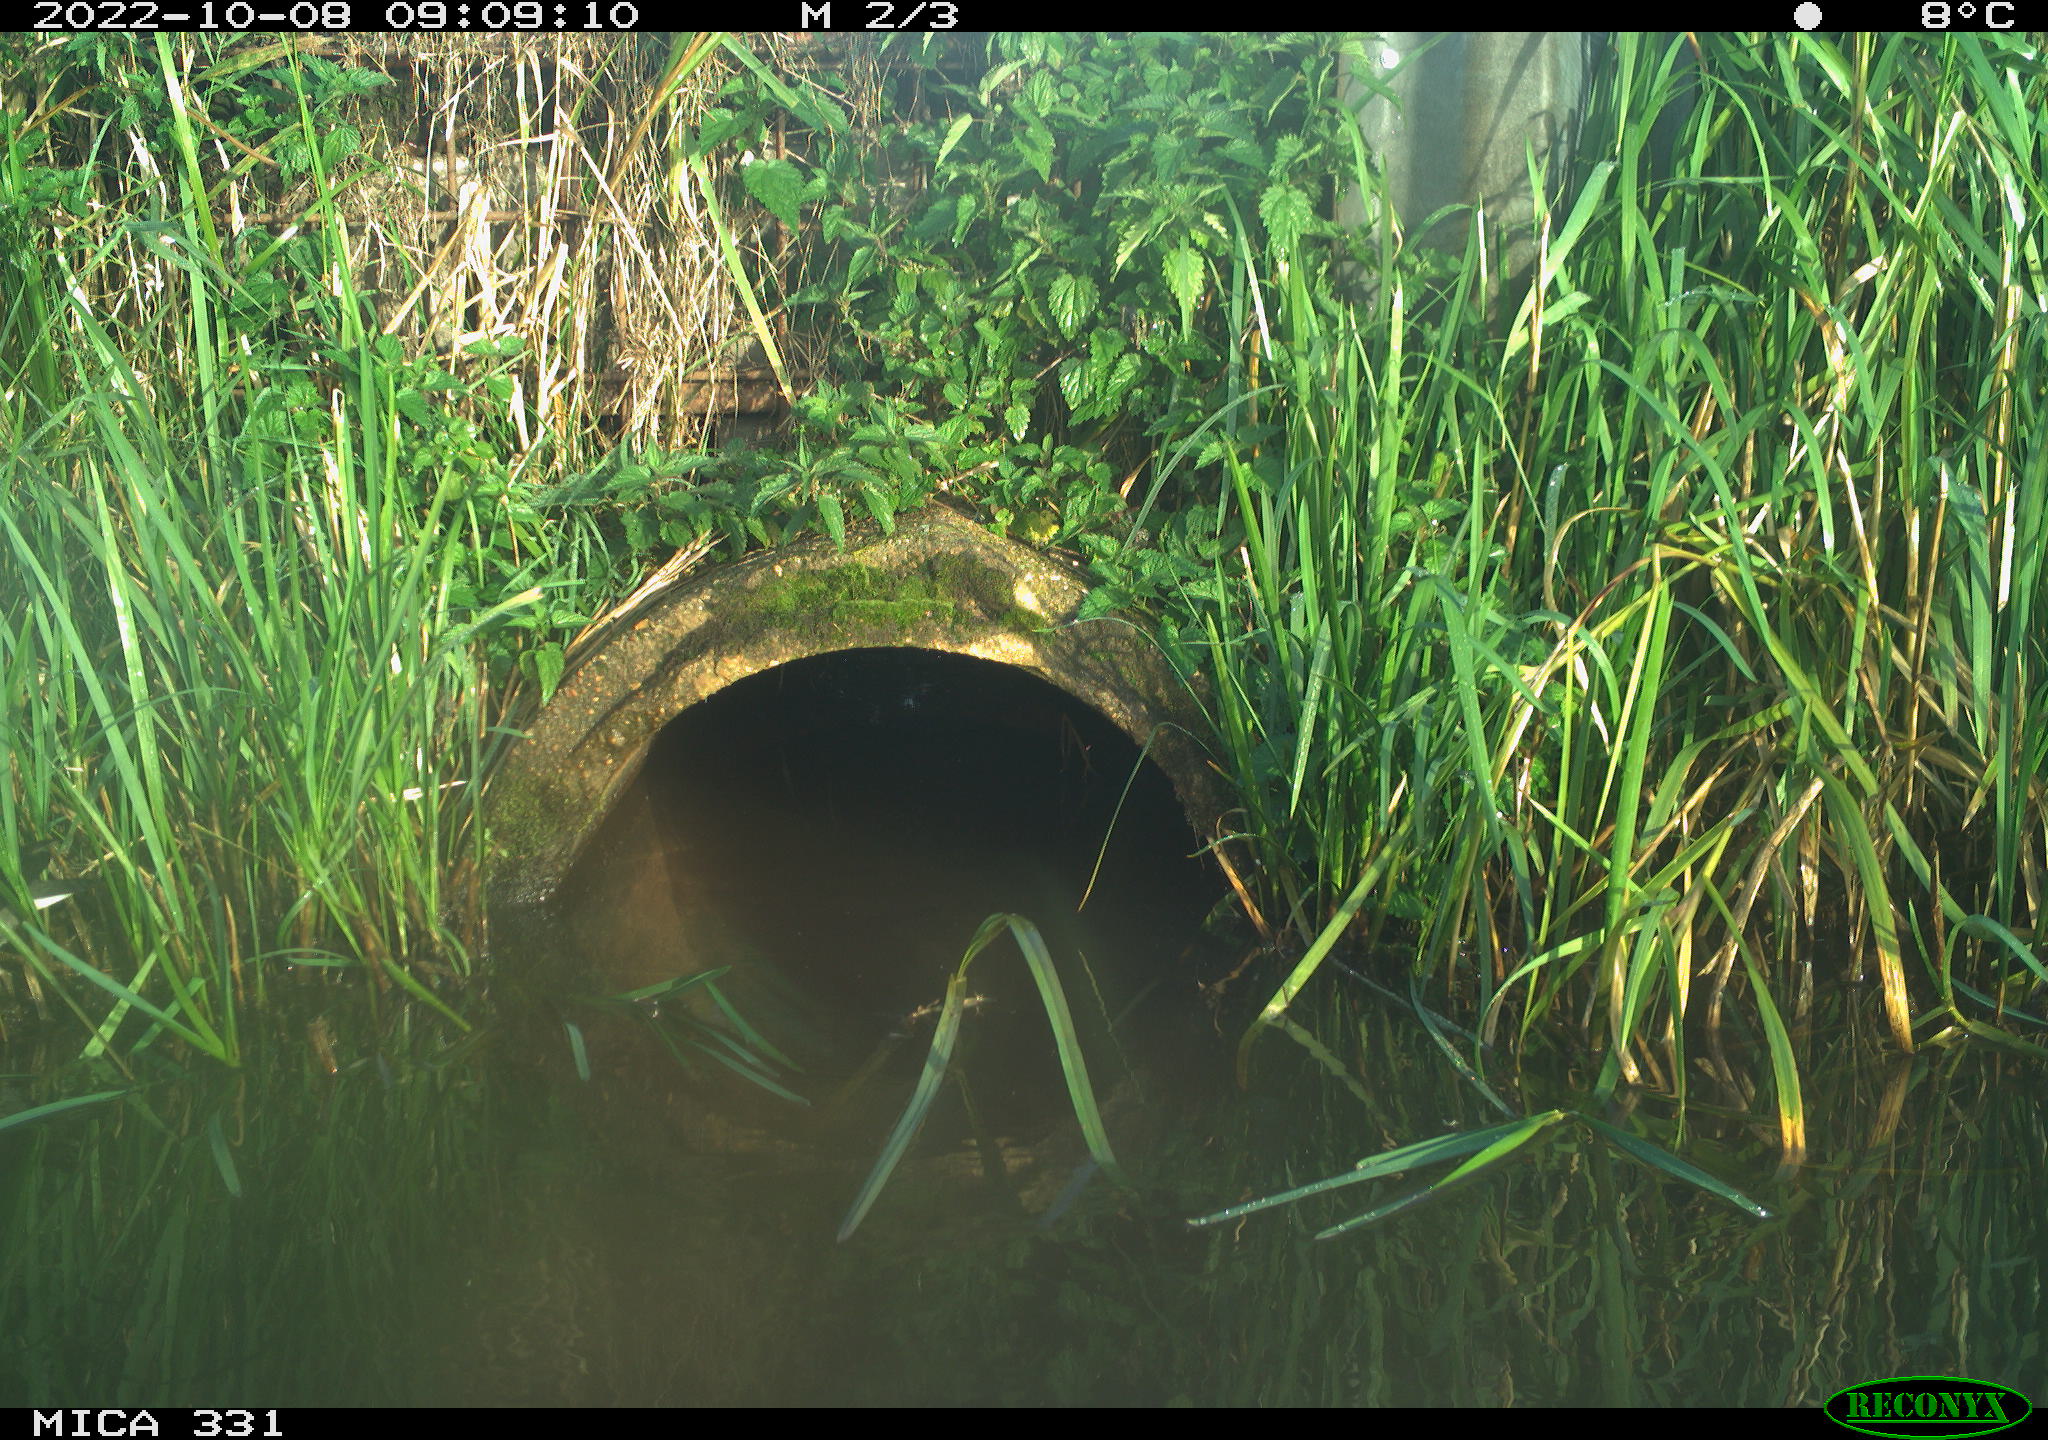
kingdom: Animalia
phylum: Chordata
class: Aves
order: Gruiformes
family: Rallidae
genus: Gallinula
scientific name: Gallinula chloropus
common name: Common moorhen
